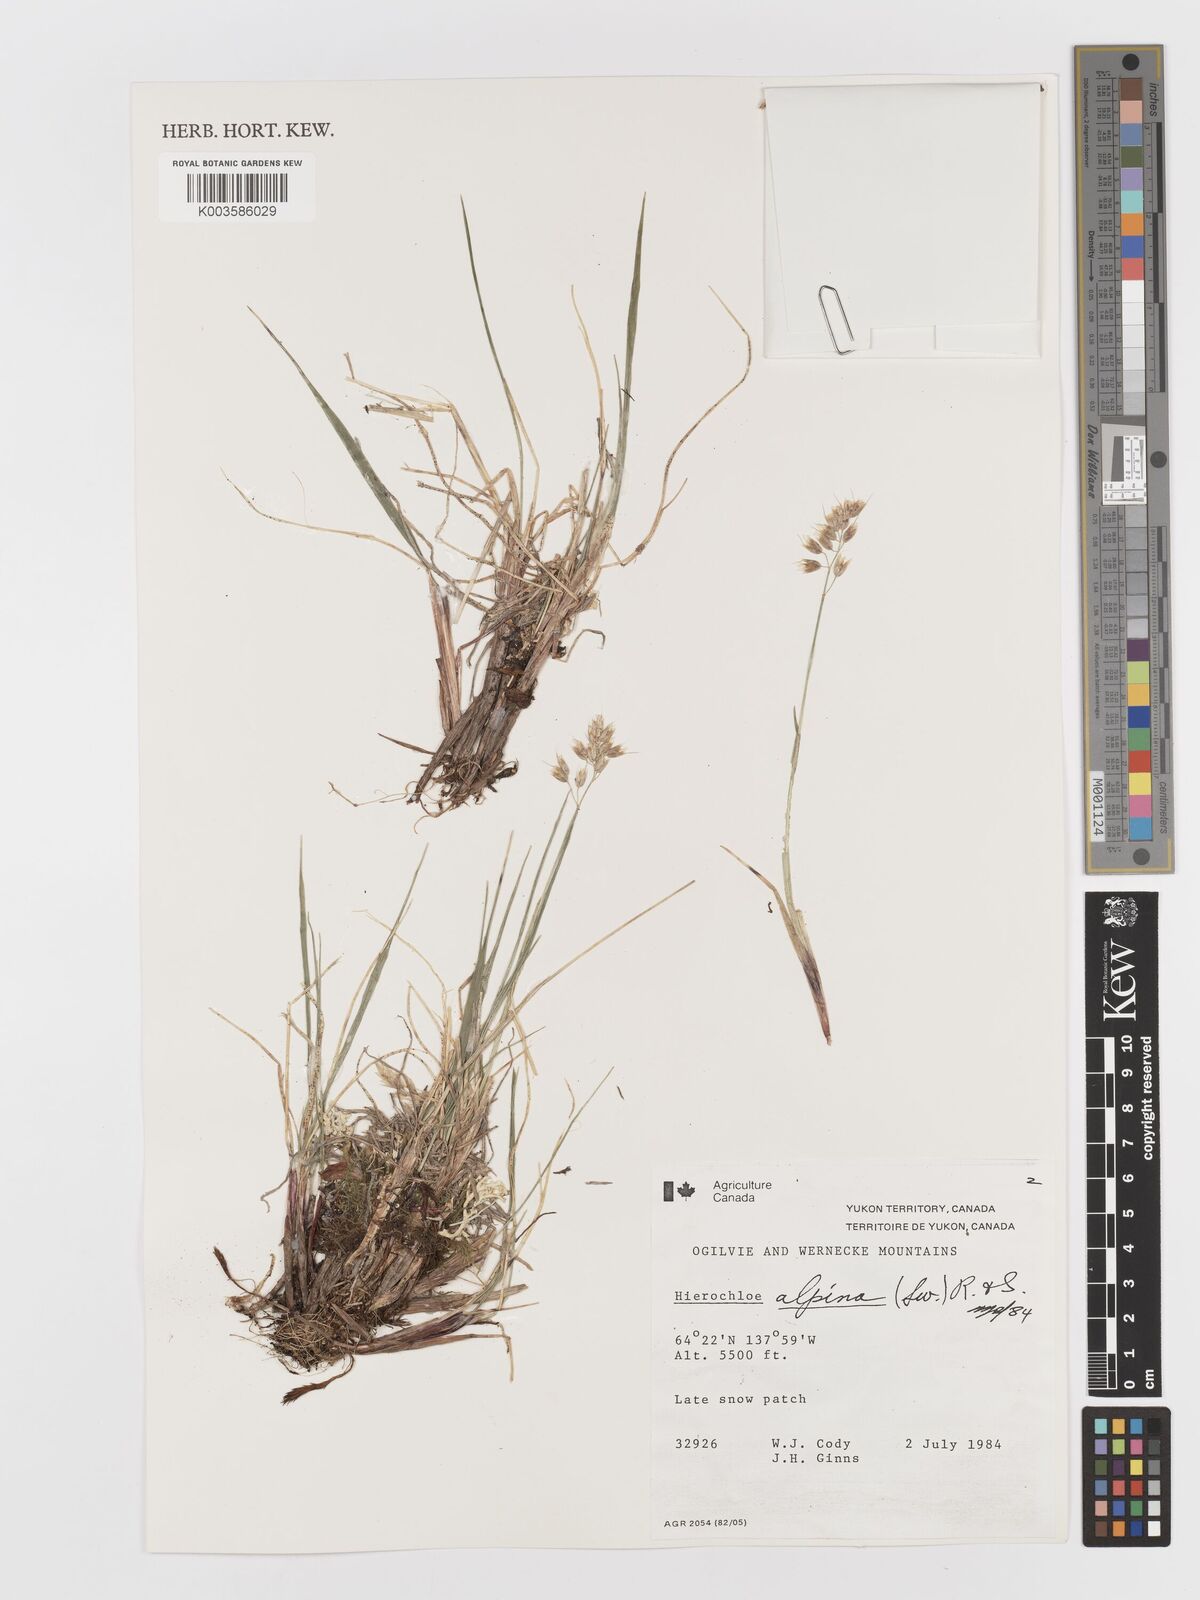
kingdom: Plantae
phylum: Tracheophyta
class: Liliopsida
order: Poales
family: Poaceae
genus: Anthoxanthum
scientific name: Anthoxanthum monticola
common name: Alpine sweetgrass
